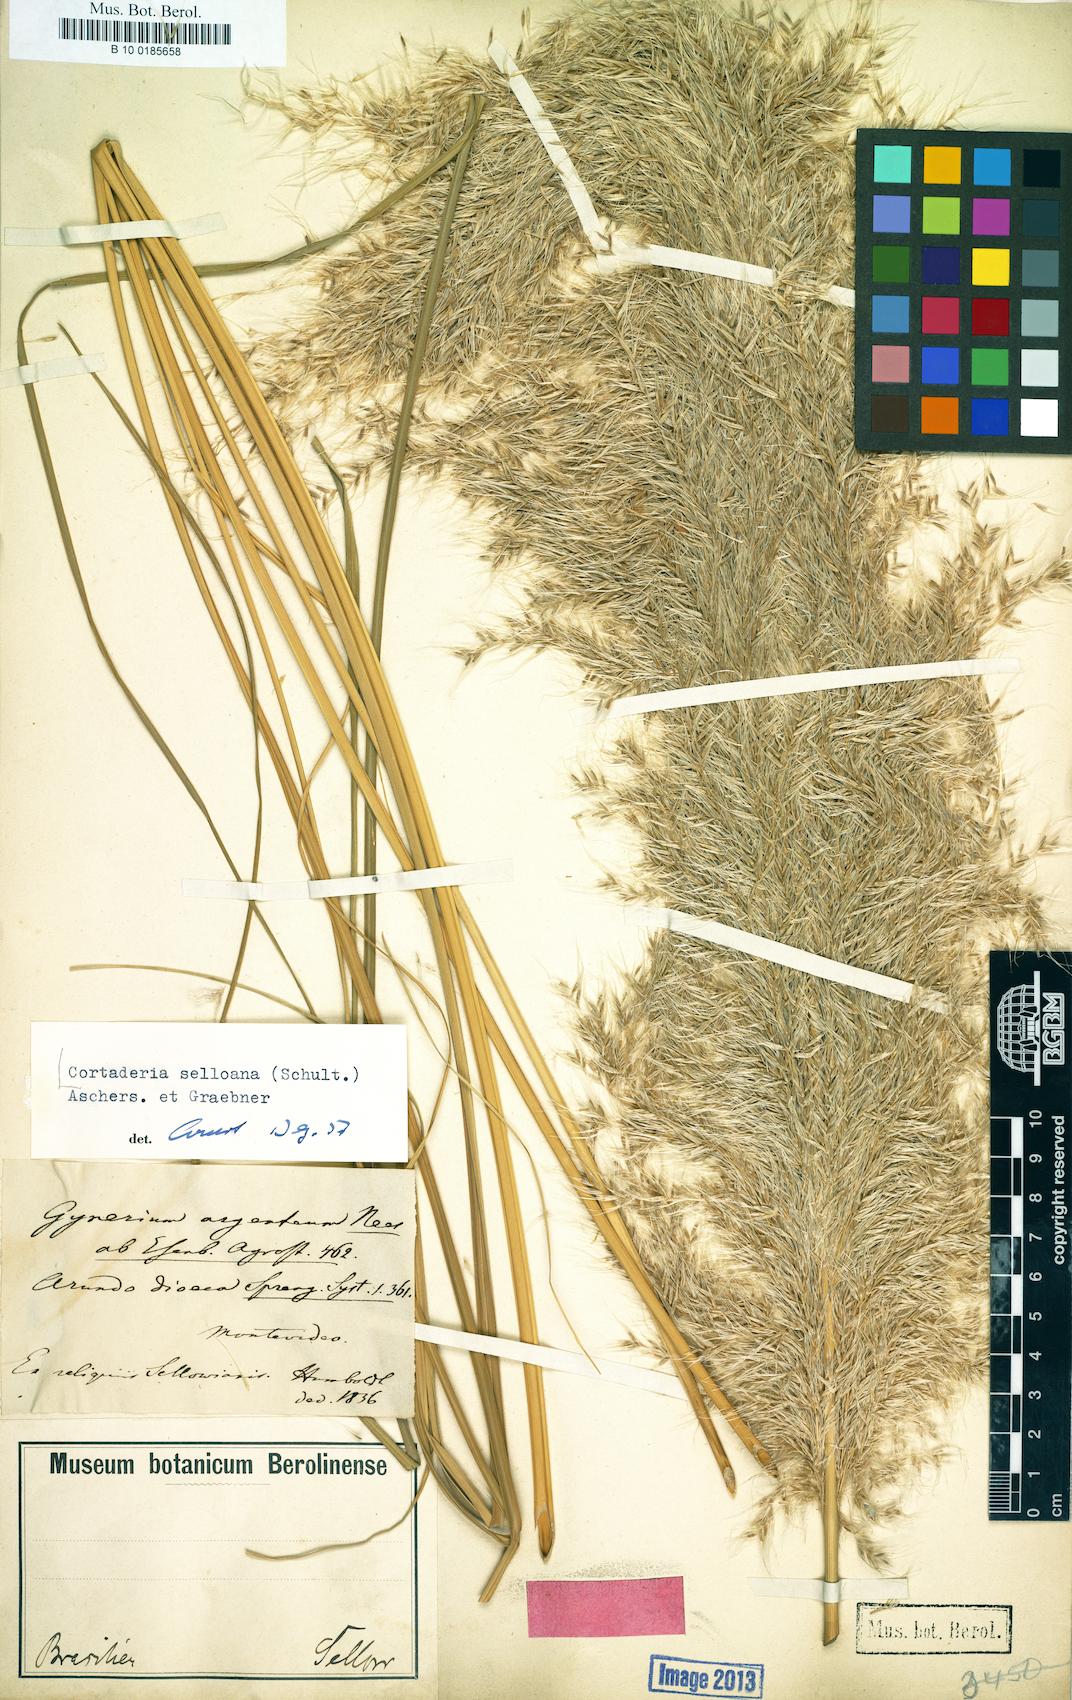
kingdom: Plantae
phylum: Tracheophyta
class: Liliopsida
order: Poales
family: Poaceae
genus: Cortaderia
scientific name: Cortaderia selloana
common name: Uruguayan pampas grass
